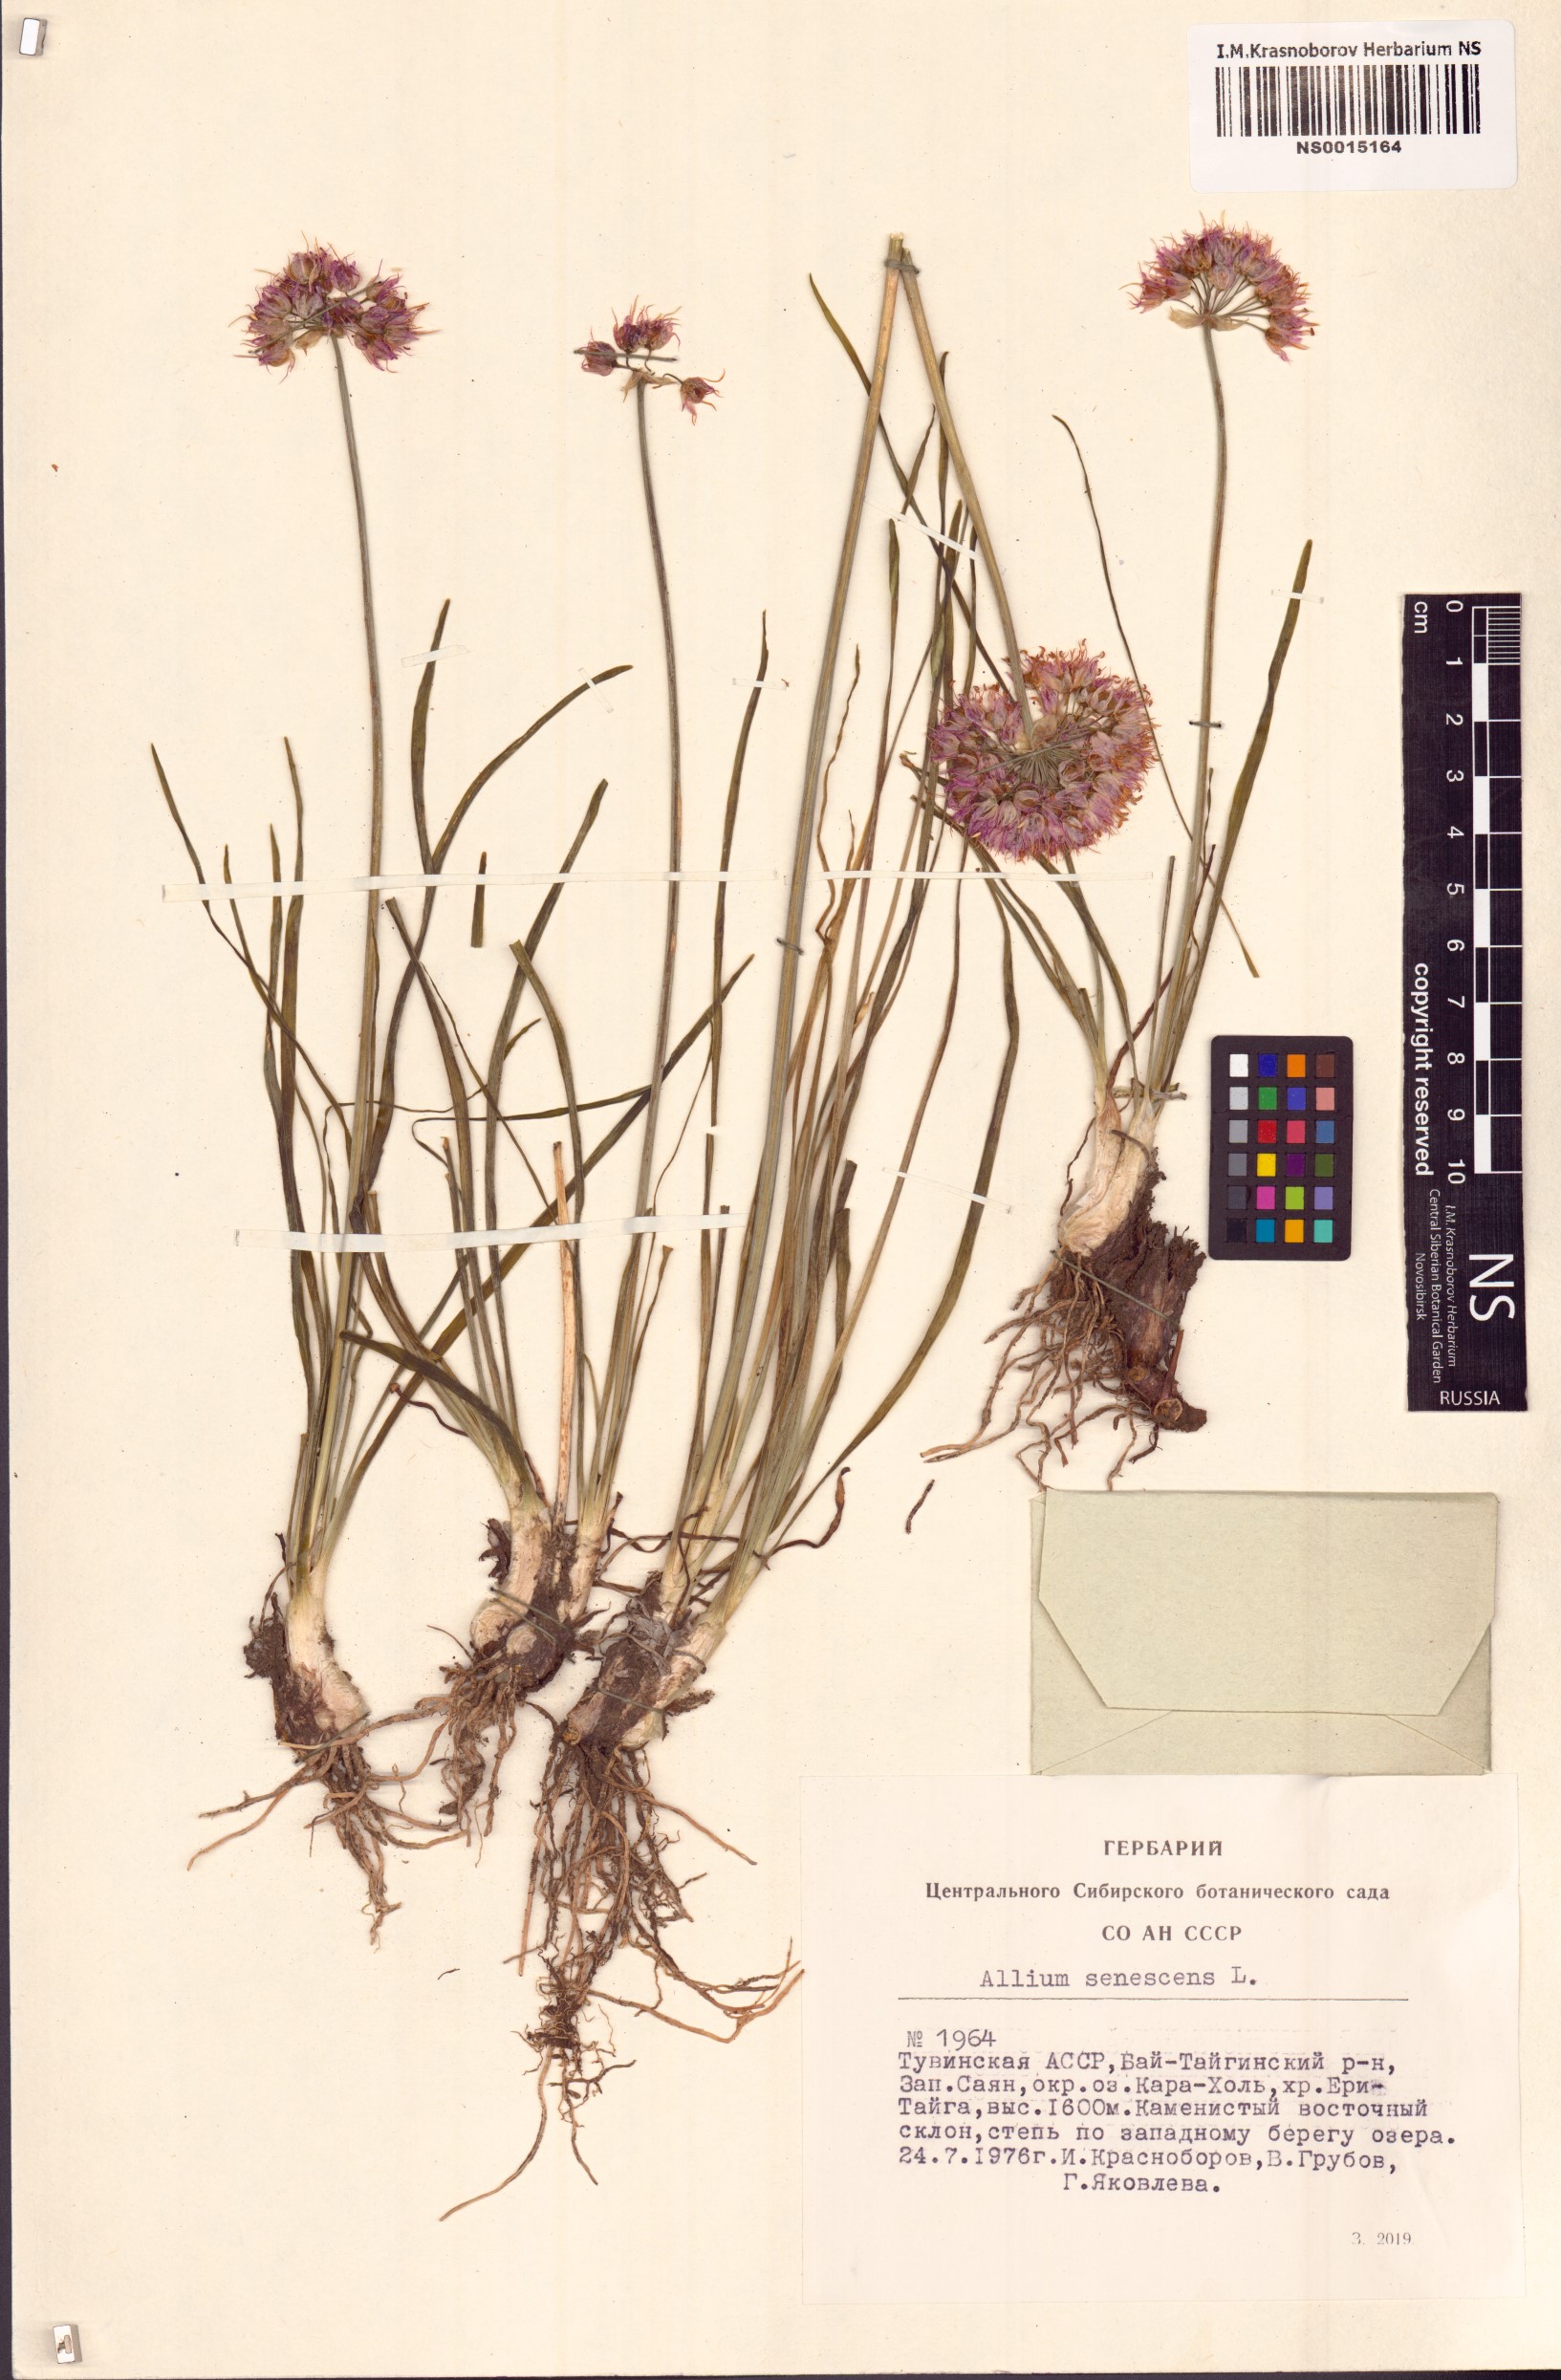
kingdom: Plantae
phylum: Tracheophyta
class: Liliopsida
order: Asparagales
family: Amaryllidaceae
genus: Allium
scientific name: Allium senescens
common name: German garlic
